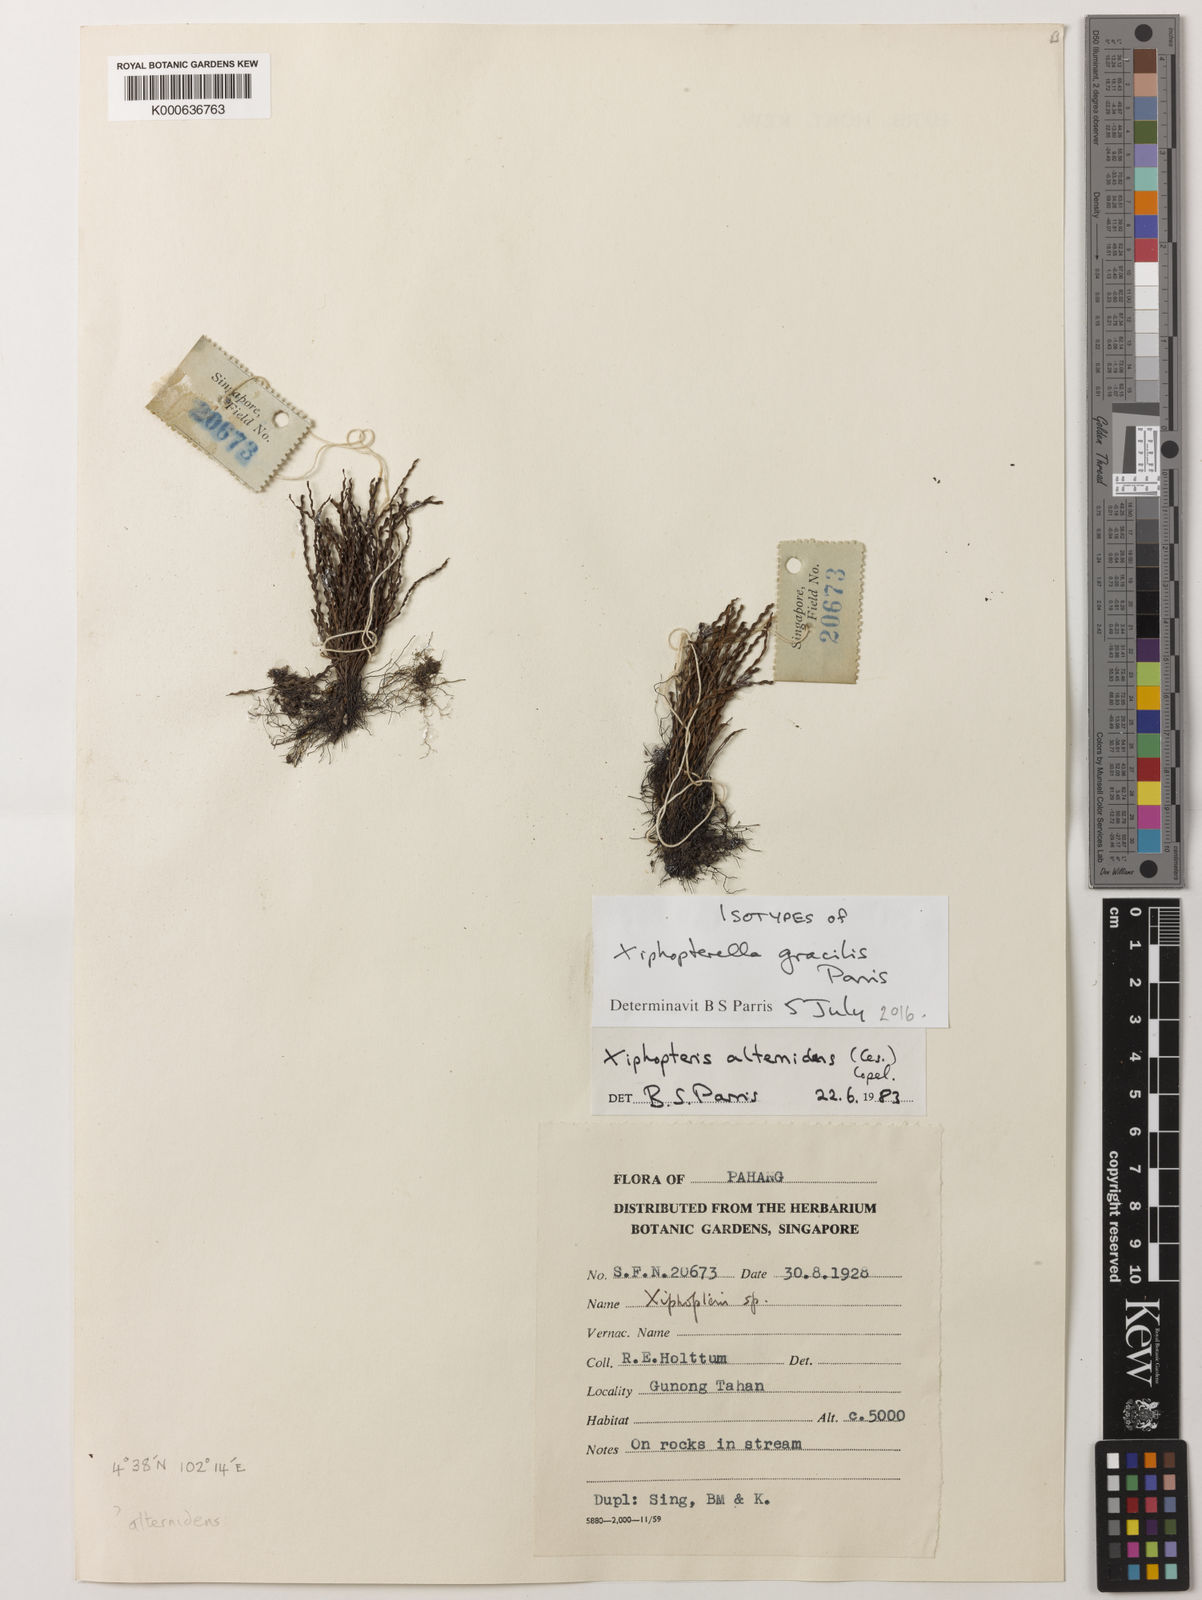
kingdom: Plantae
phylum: Tracheophyta
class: Polypodiopsida
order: Polypodiales
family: Polypodiaceae
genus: Xiphopterella
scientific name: Xiphopterella gracilis
